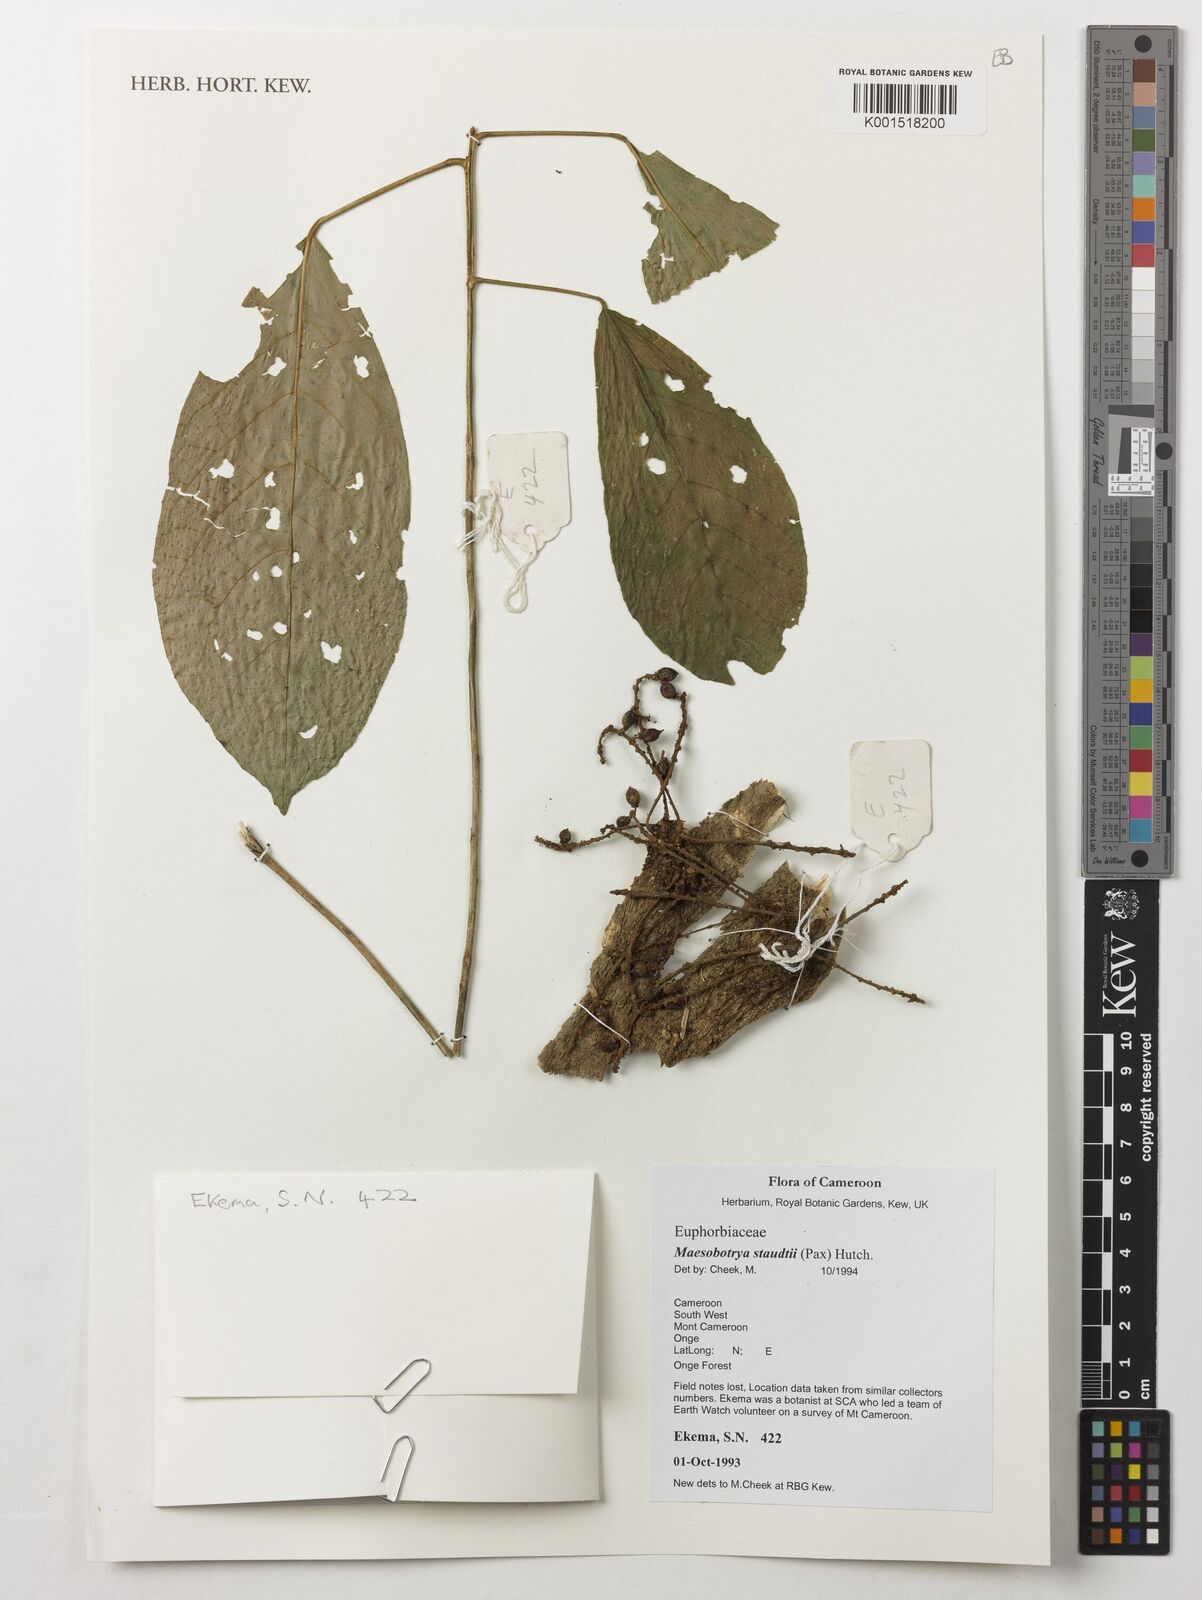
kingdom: Plantae
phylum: Tracheophyta
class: Magnoliopsida
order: Malpighiales
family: Phyllanthaceae
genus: Maesobotrya
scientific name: Maesobotrya staudtii
